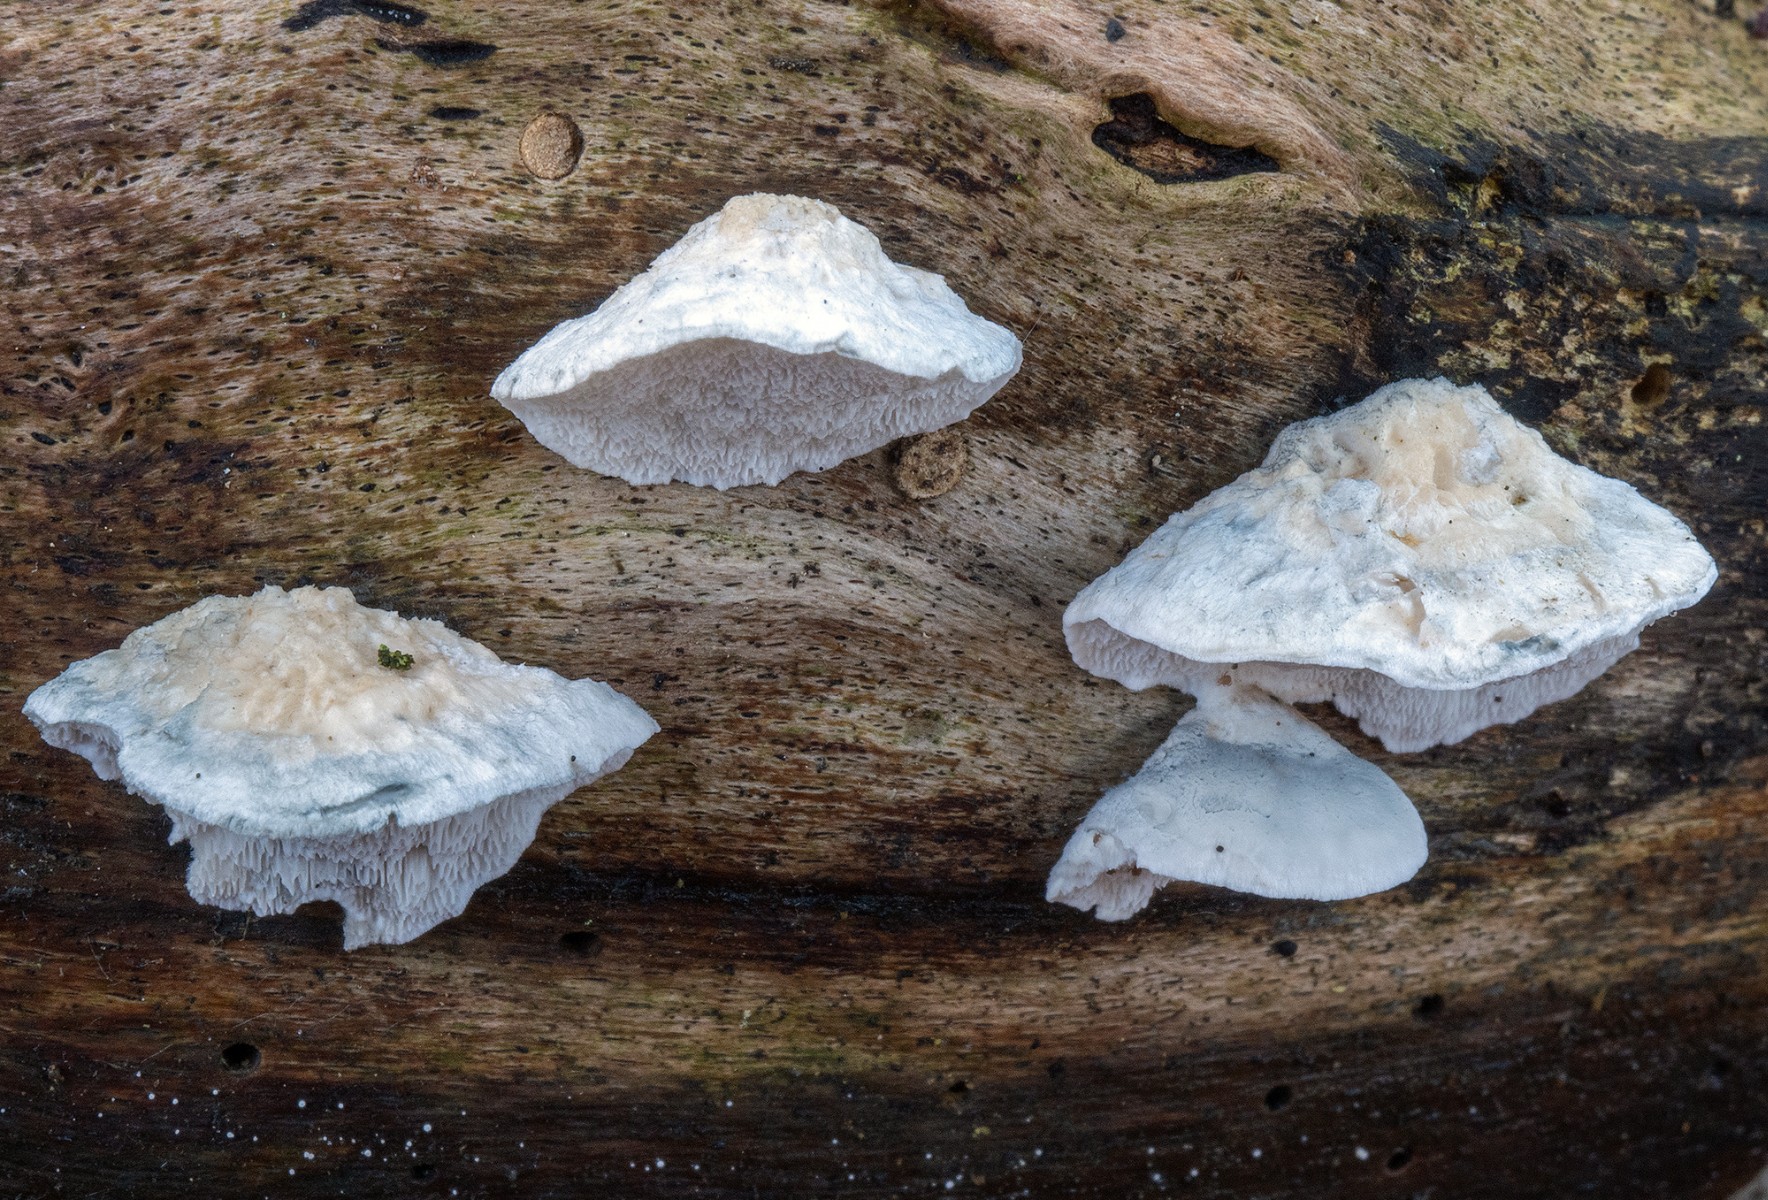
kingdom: Fungi
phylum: Basidiomycota
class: Agaricomycetes
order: Polyporales
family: Polyporaceae
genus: Cyanosporus
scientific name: Cyanosporus alni
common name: blegblå kødporesvamp
